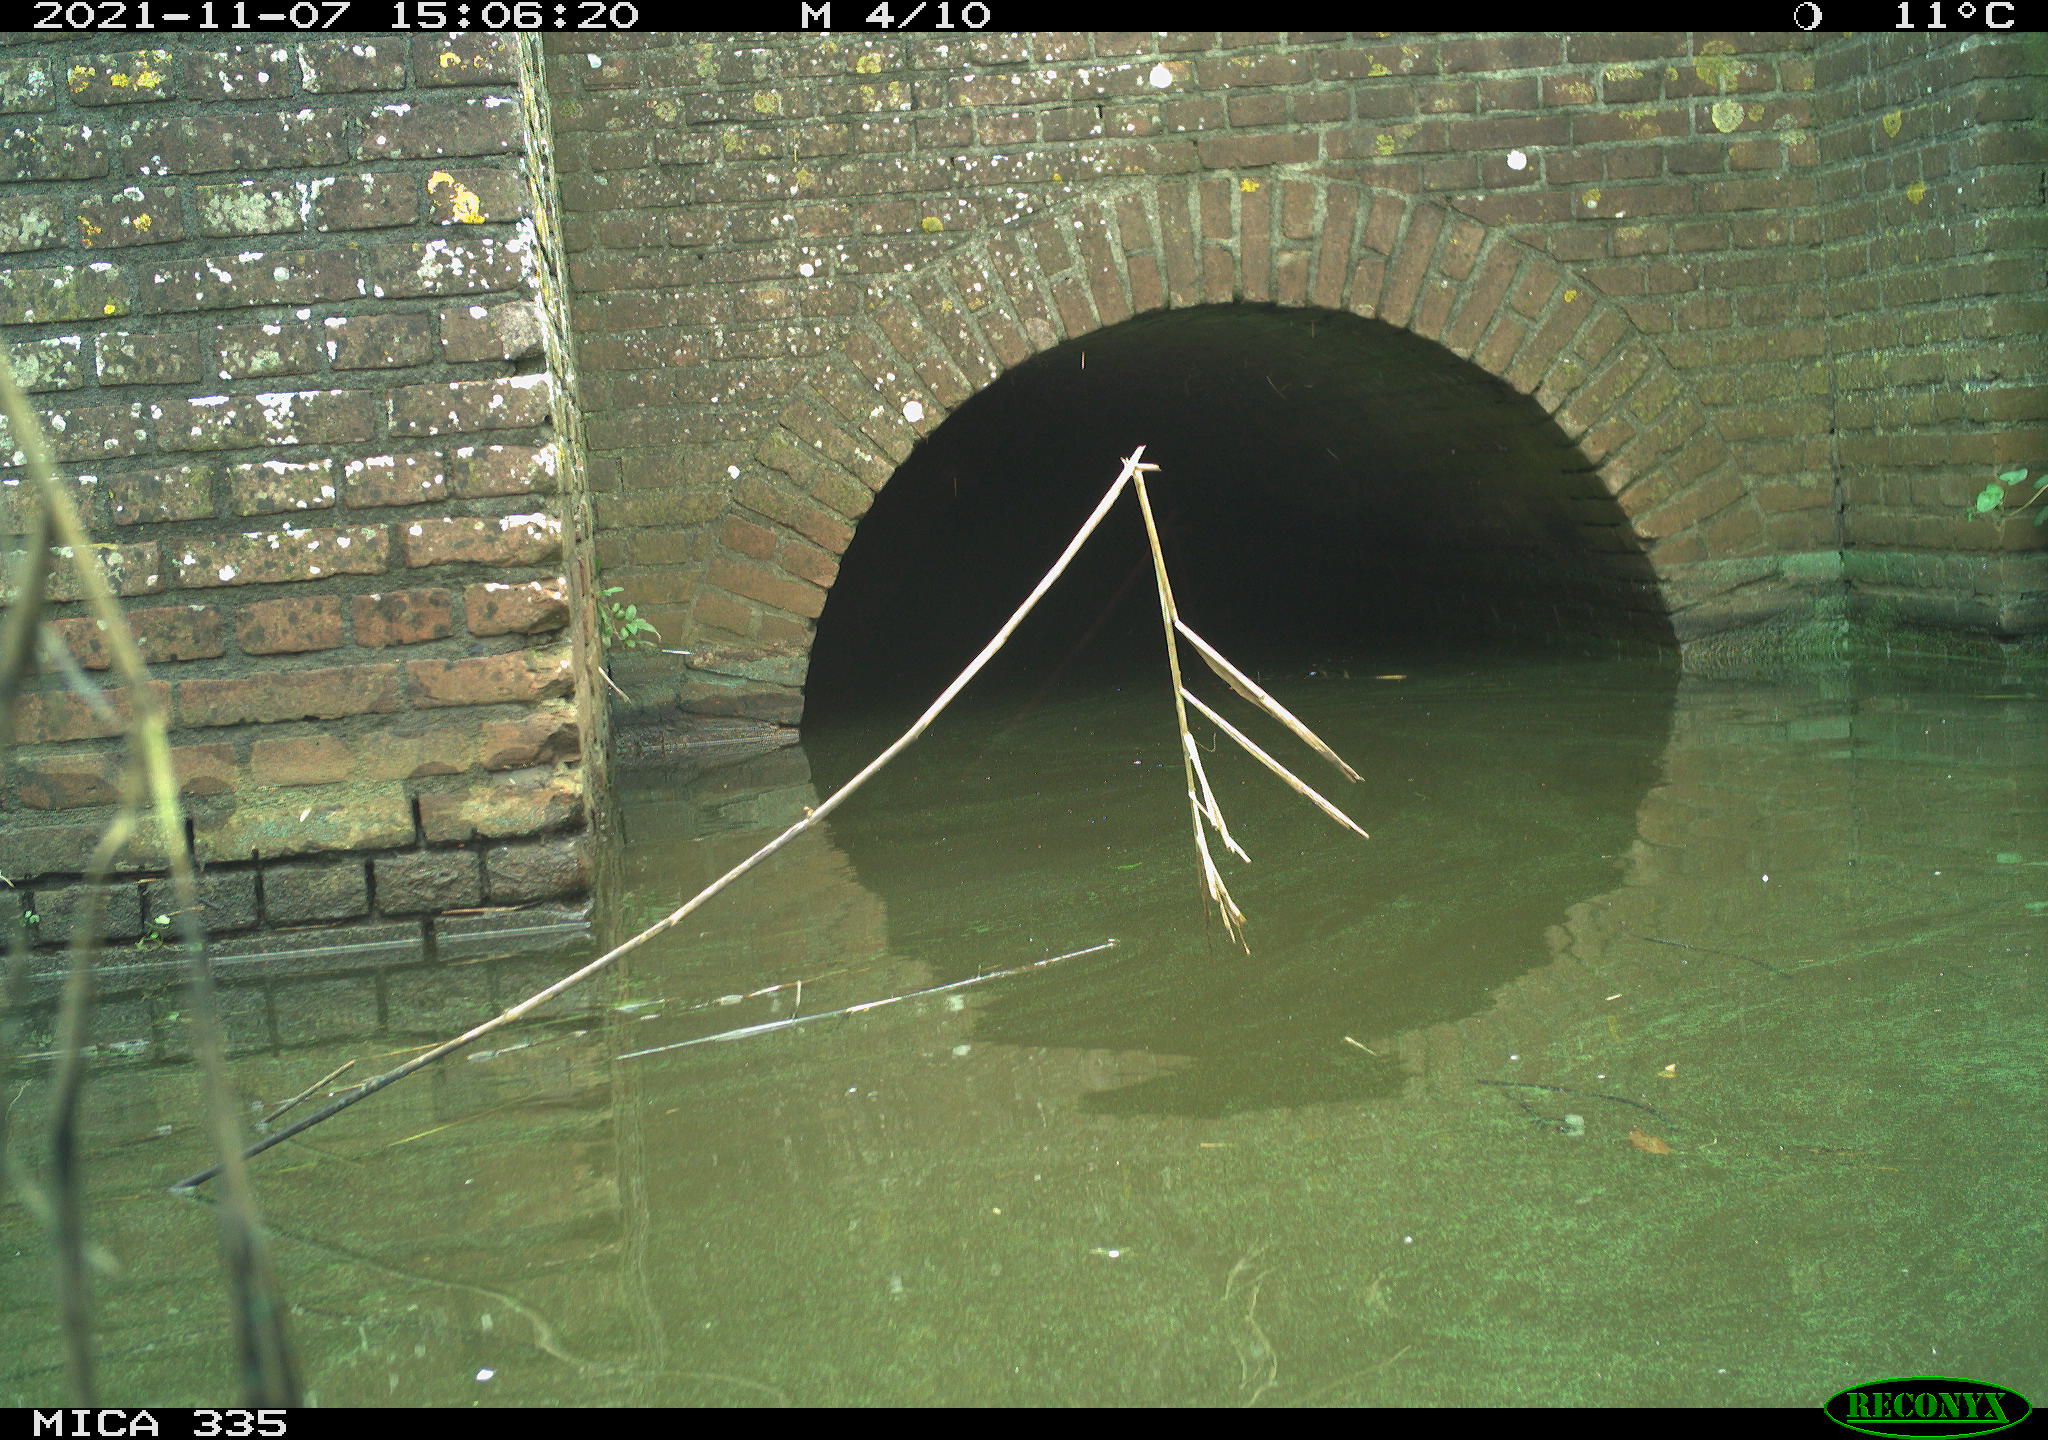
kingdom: Animalia
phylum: Chordata
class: Aves
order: Anseriformes
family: Anatidae
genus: Anas
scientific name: Anas platyrhynchos
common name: Mallard
